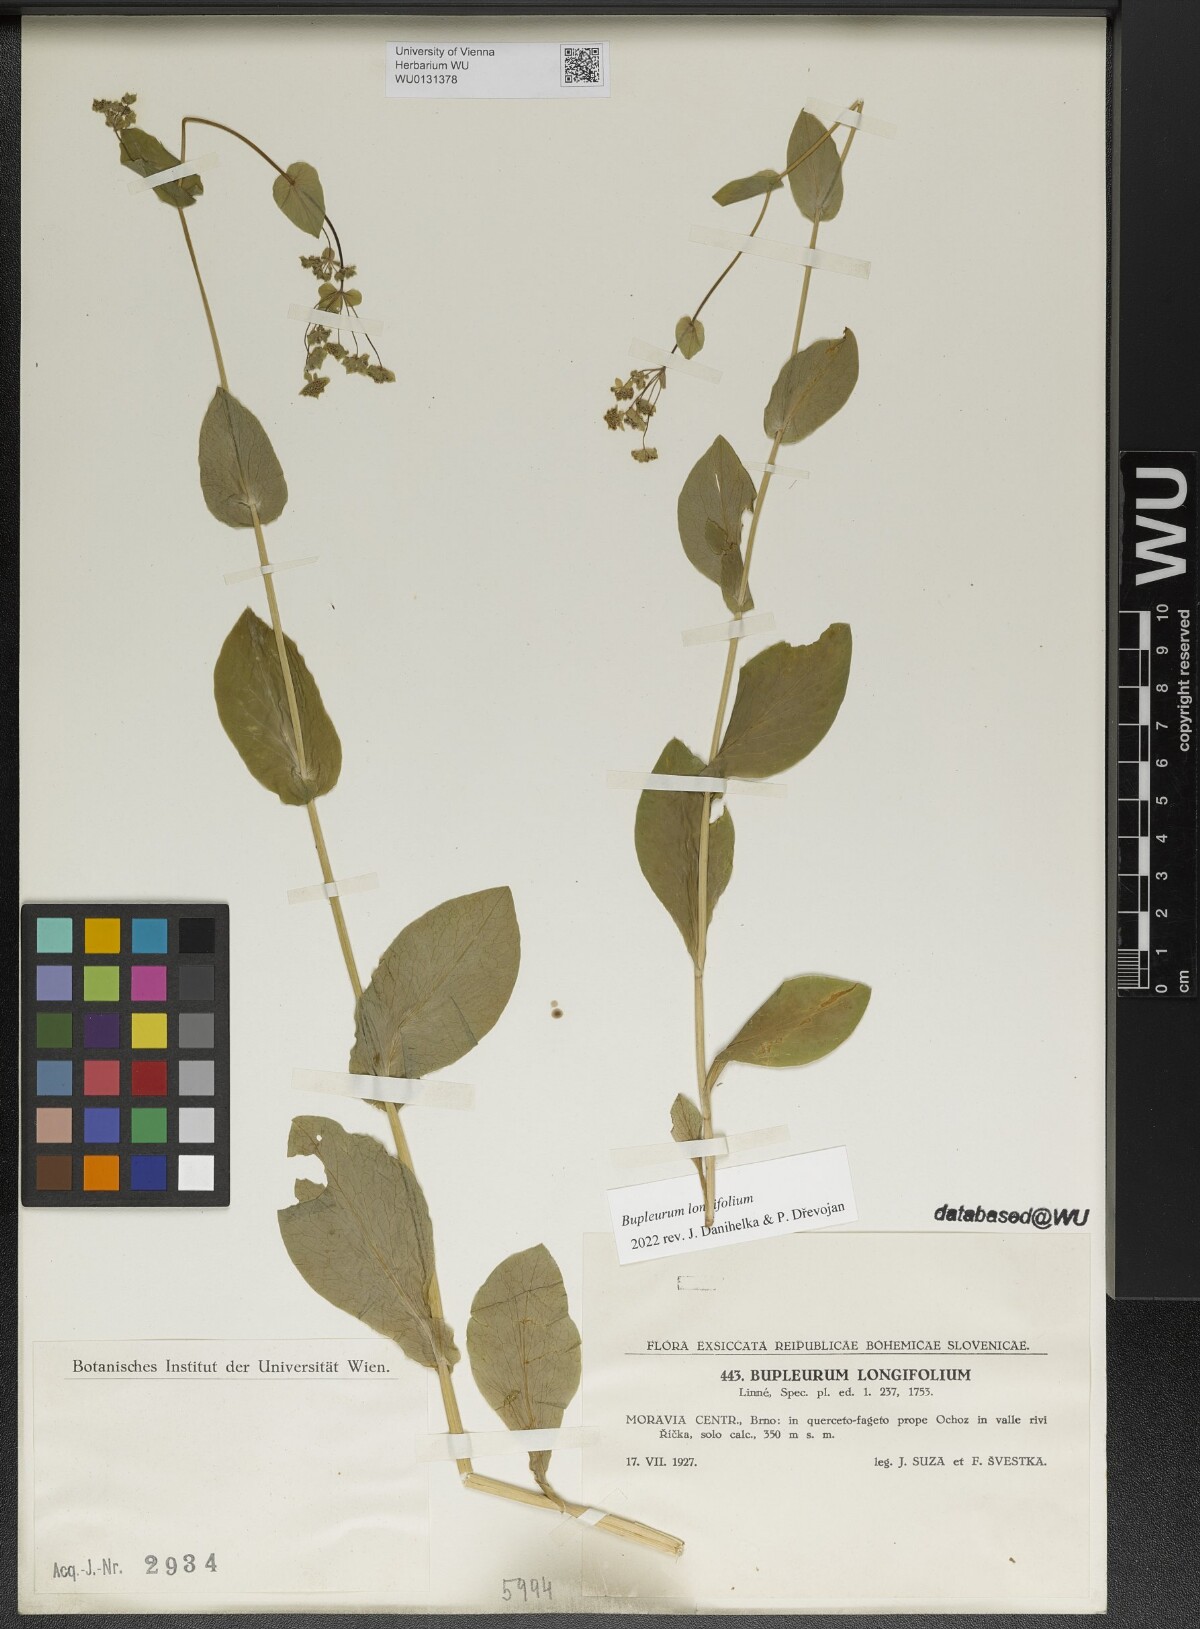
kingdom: Plantae
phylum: Tracheophyta
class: Magnoliopsida
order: Apiales
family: Apiaceae
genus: Bupleurum
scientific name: Bupleurum longifolium
